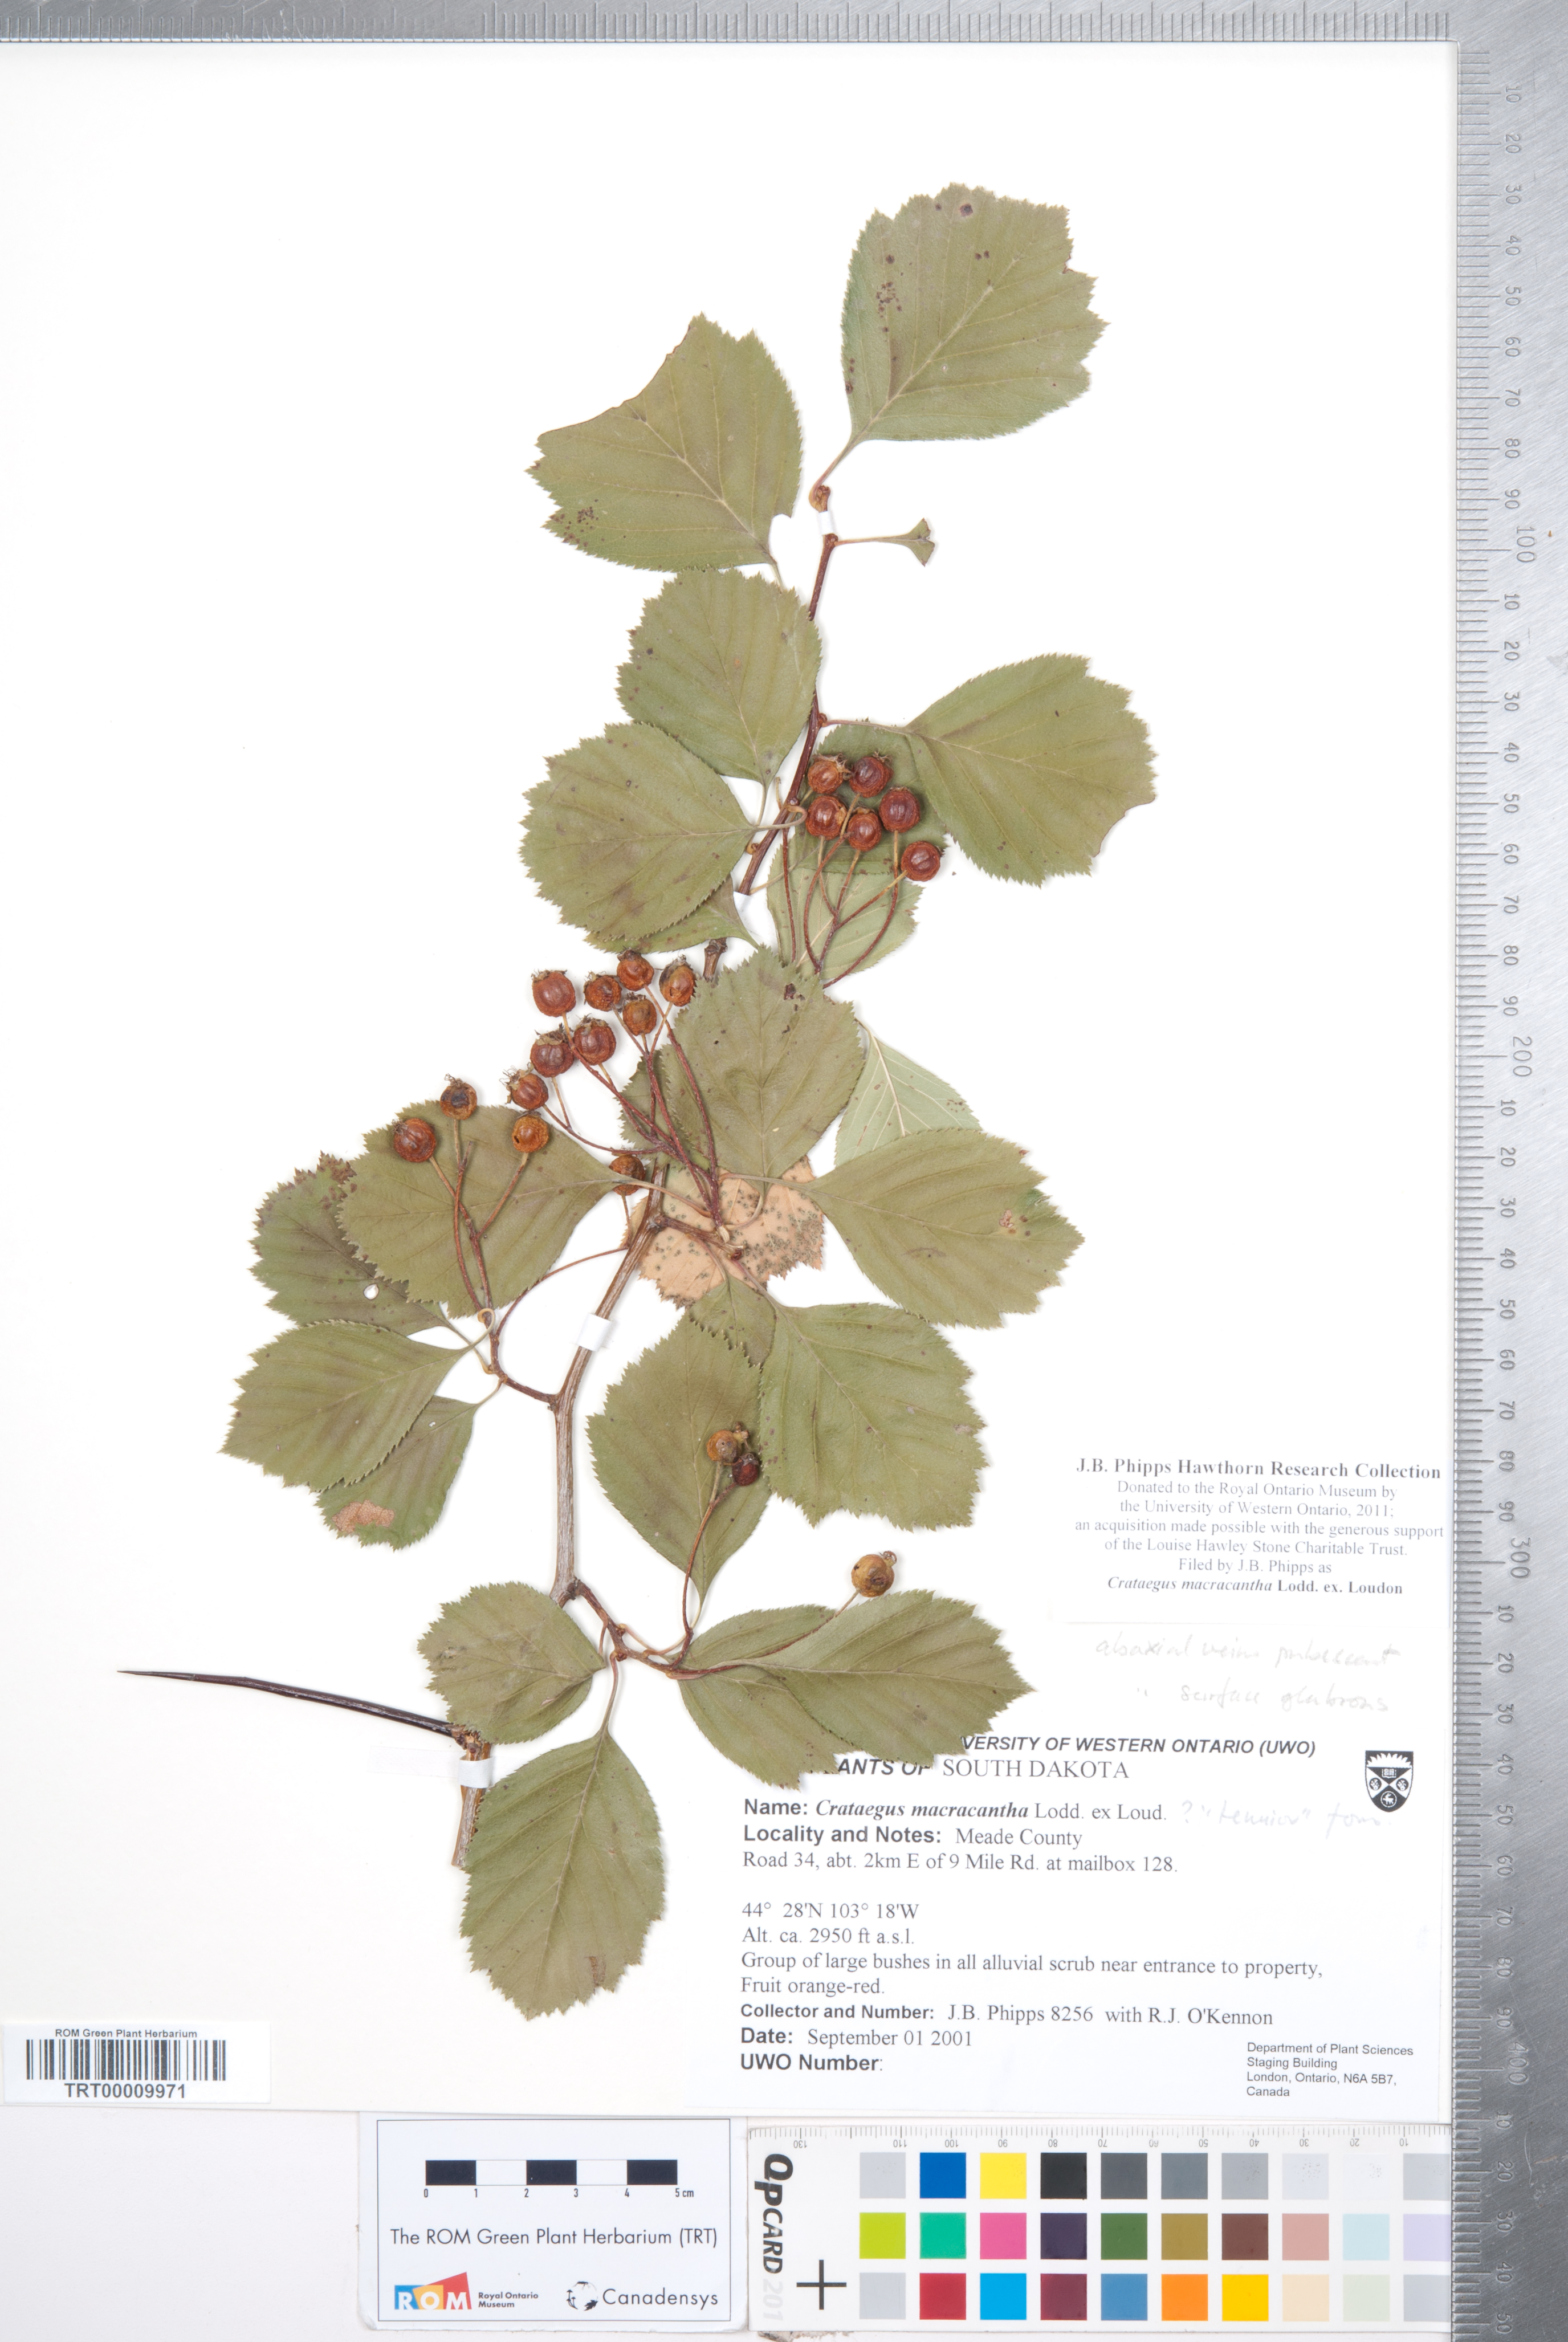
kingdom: Plantae
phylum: Tracheophyta
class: Magnoliopsida
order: Rosales
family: Rosaceae
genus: Crataegus
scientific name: Crataegus macracantha
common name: Large-thorn hawthorn
